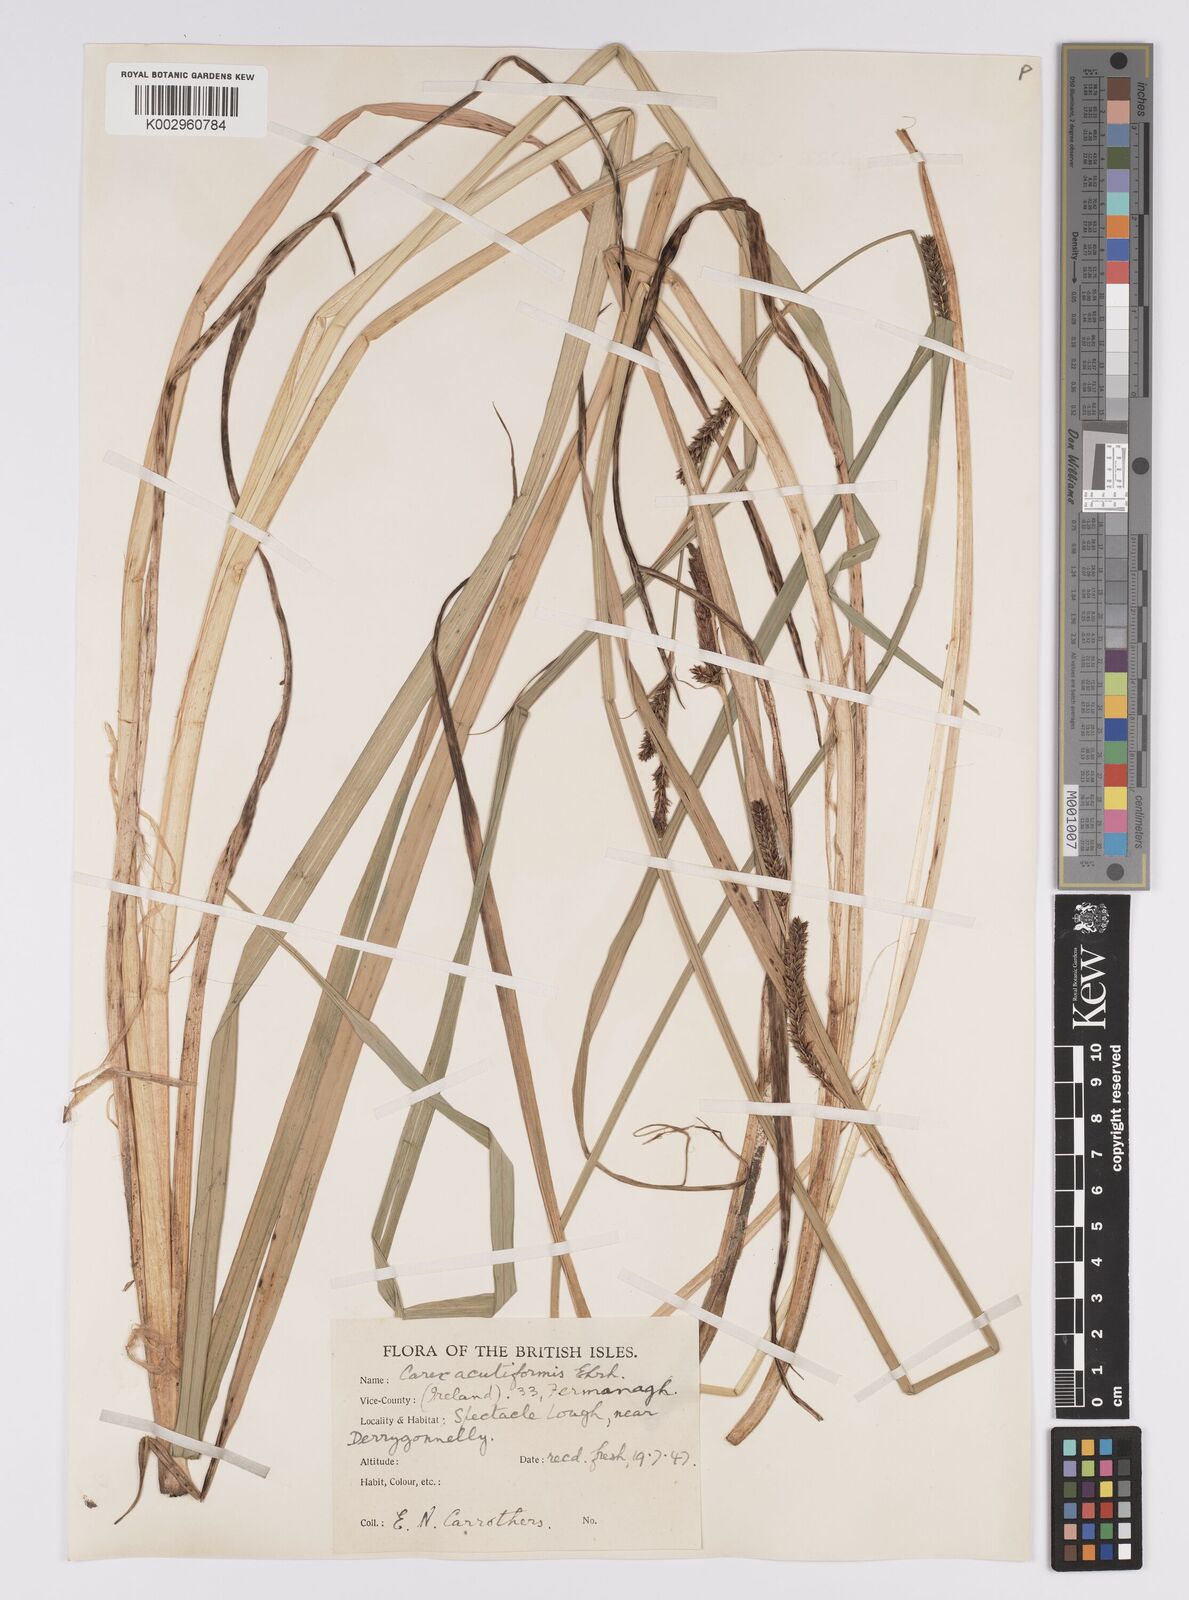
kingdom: Plantae
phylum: Tracheophyta
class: Liliopsida
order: Poales
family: Cyperaceae
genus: Carex
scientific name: Carex acutiformis
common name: Lesser pond-sedge
